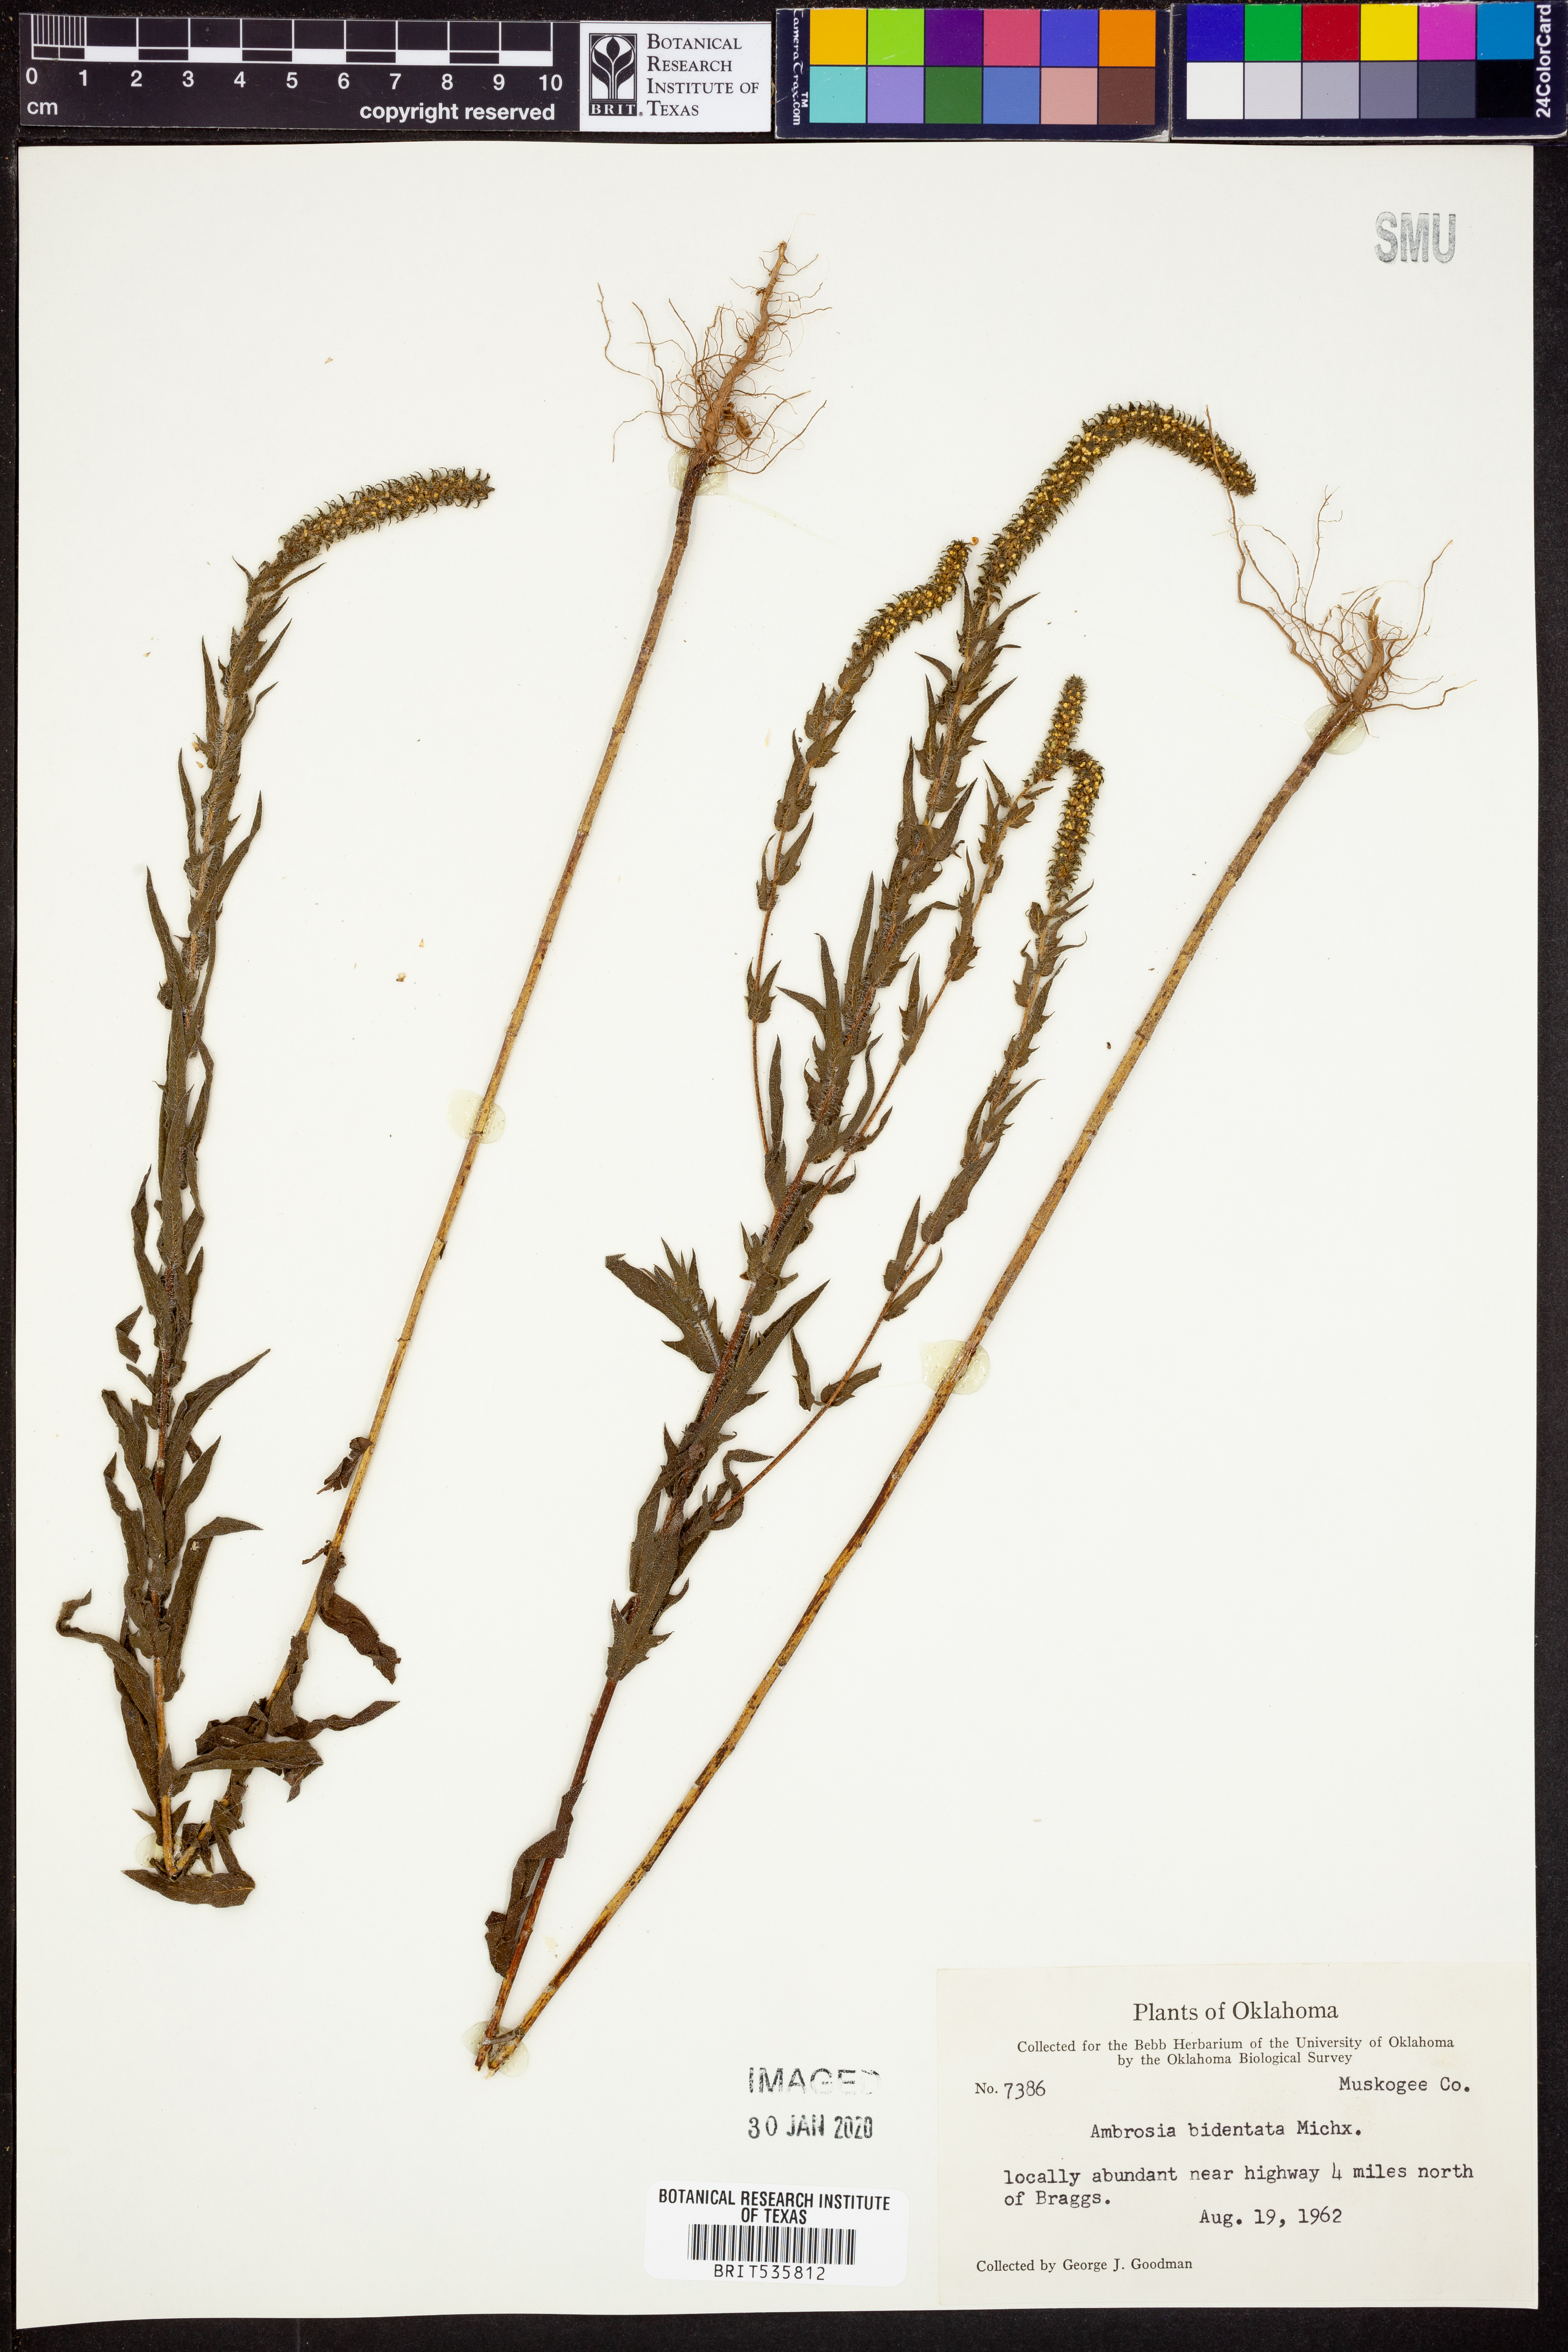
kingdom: Plantae
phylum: Tracheophyta
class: Magnoliopsida
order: Asterales
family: Asteraceae
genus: Ambrosia
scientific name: Ambrosia bidentata
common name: Southern ragweed
